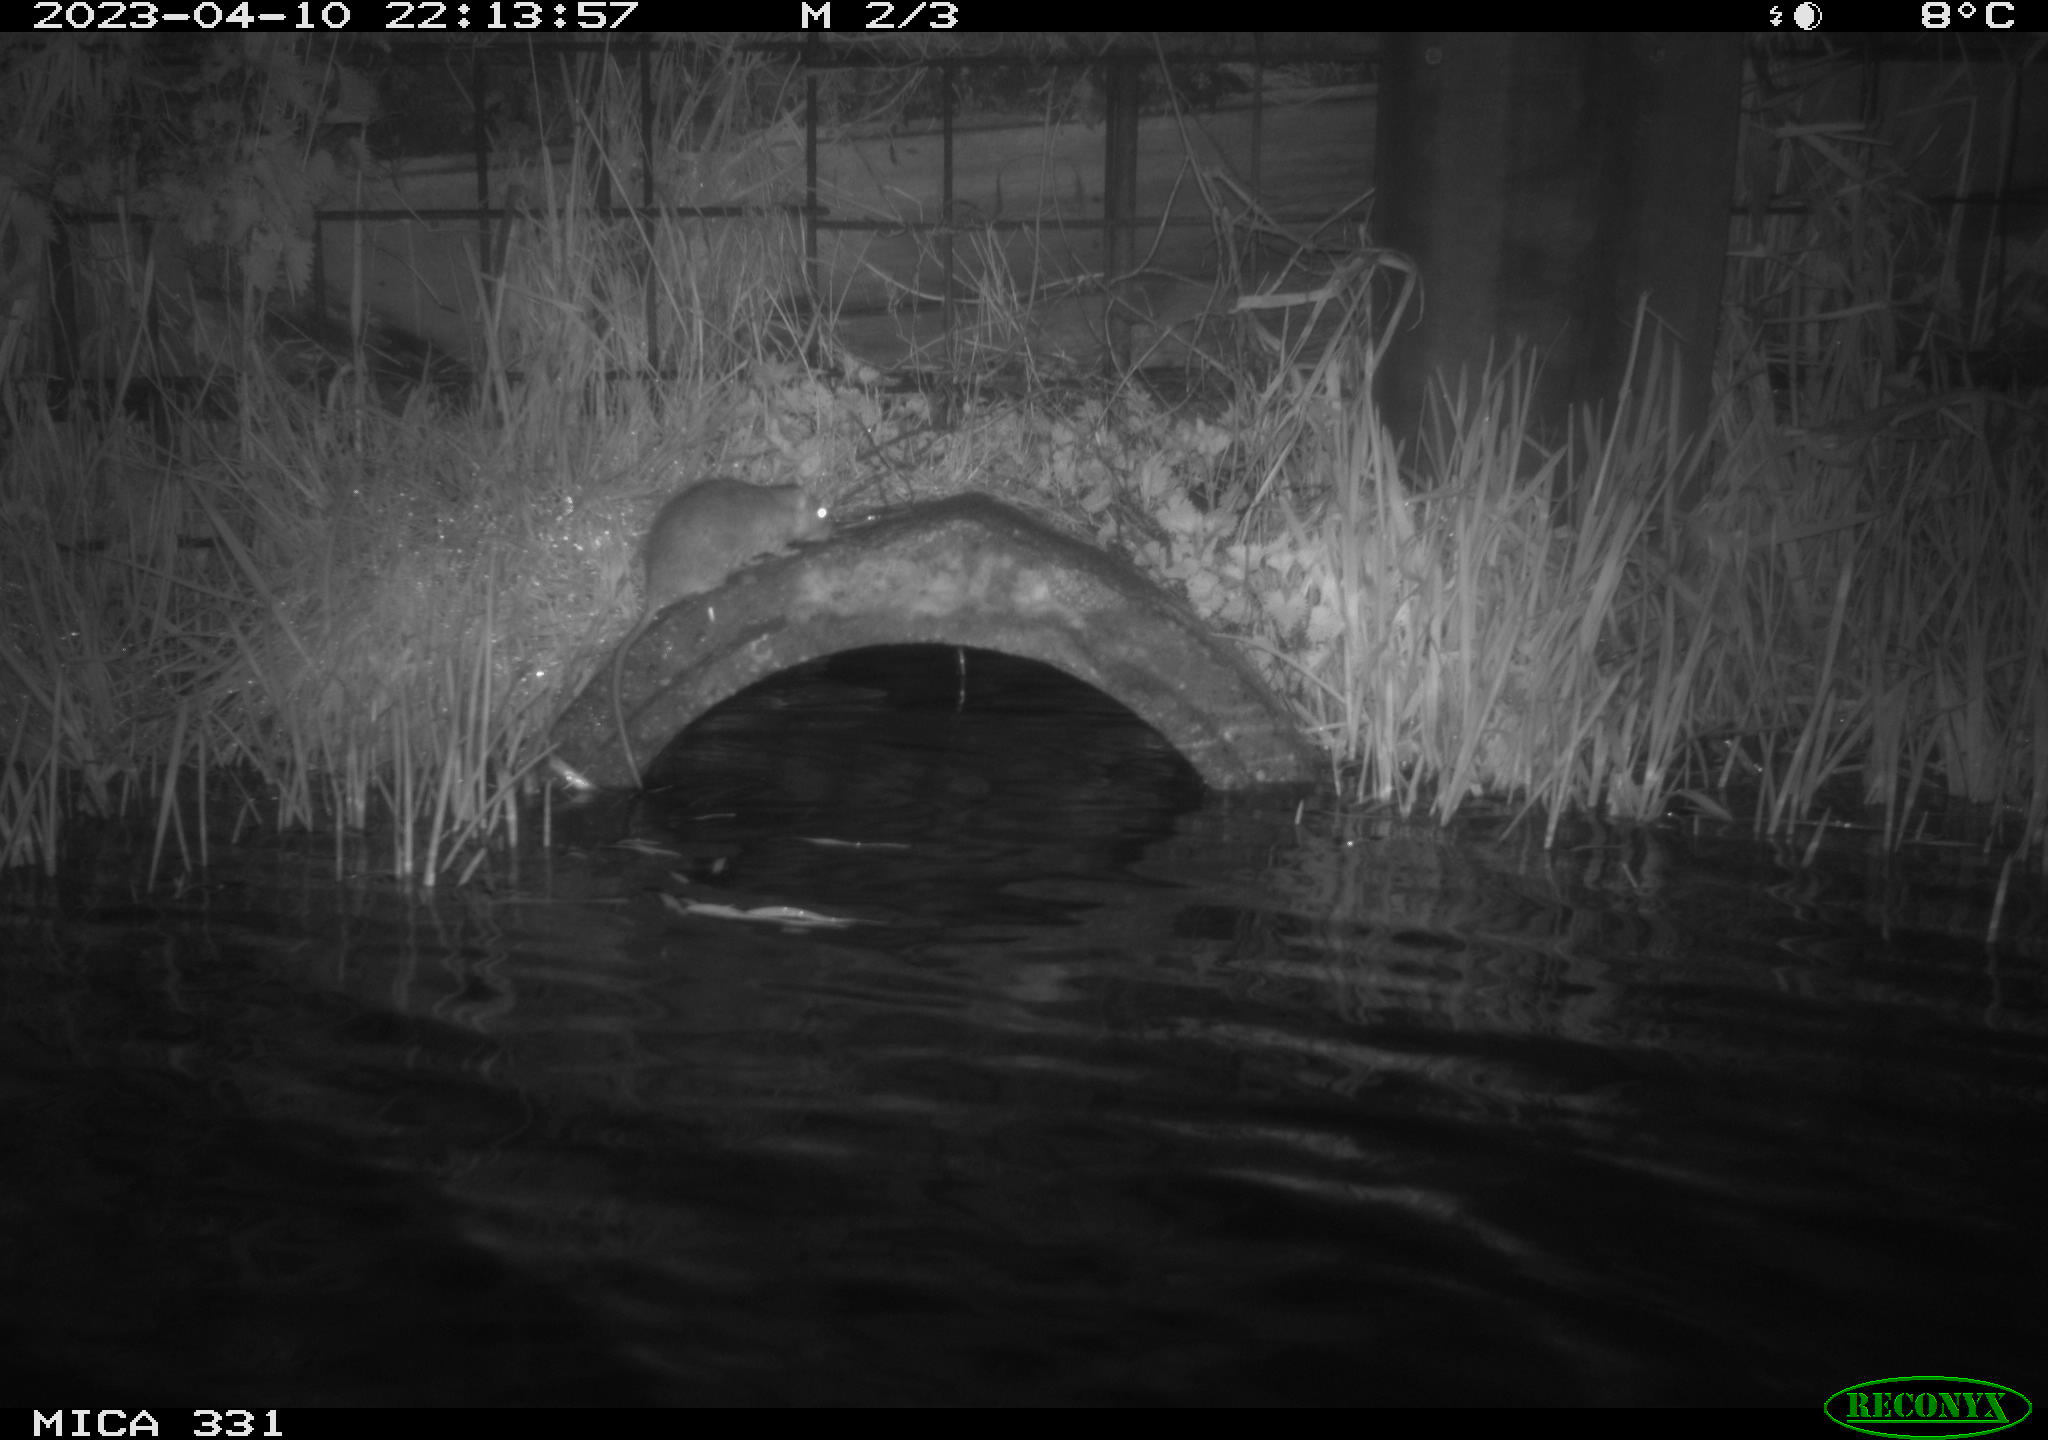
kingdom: Animalia
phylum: Chordata
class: Mammalia
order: Rodentia
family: Muridae
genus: Rattus
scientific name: Rattus norvegicus
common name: Brown rat
